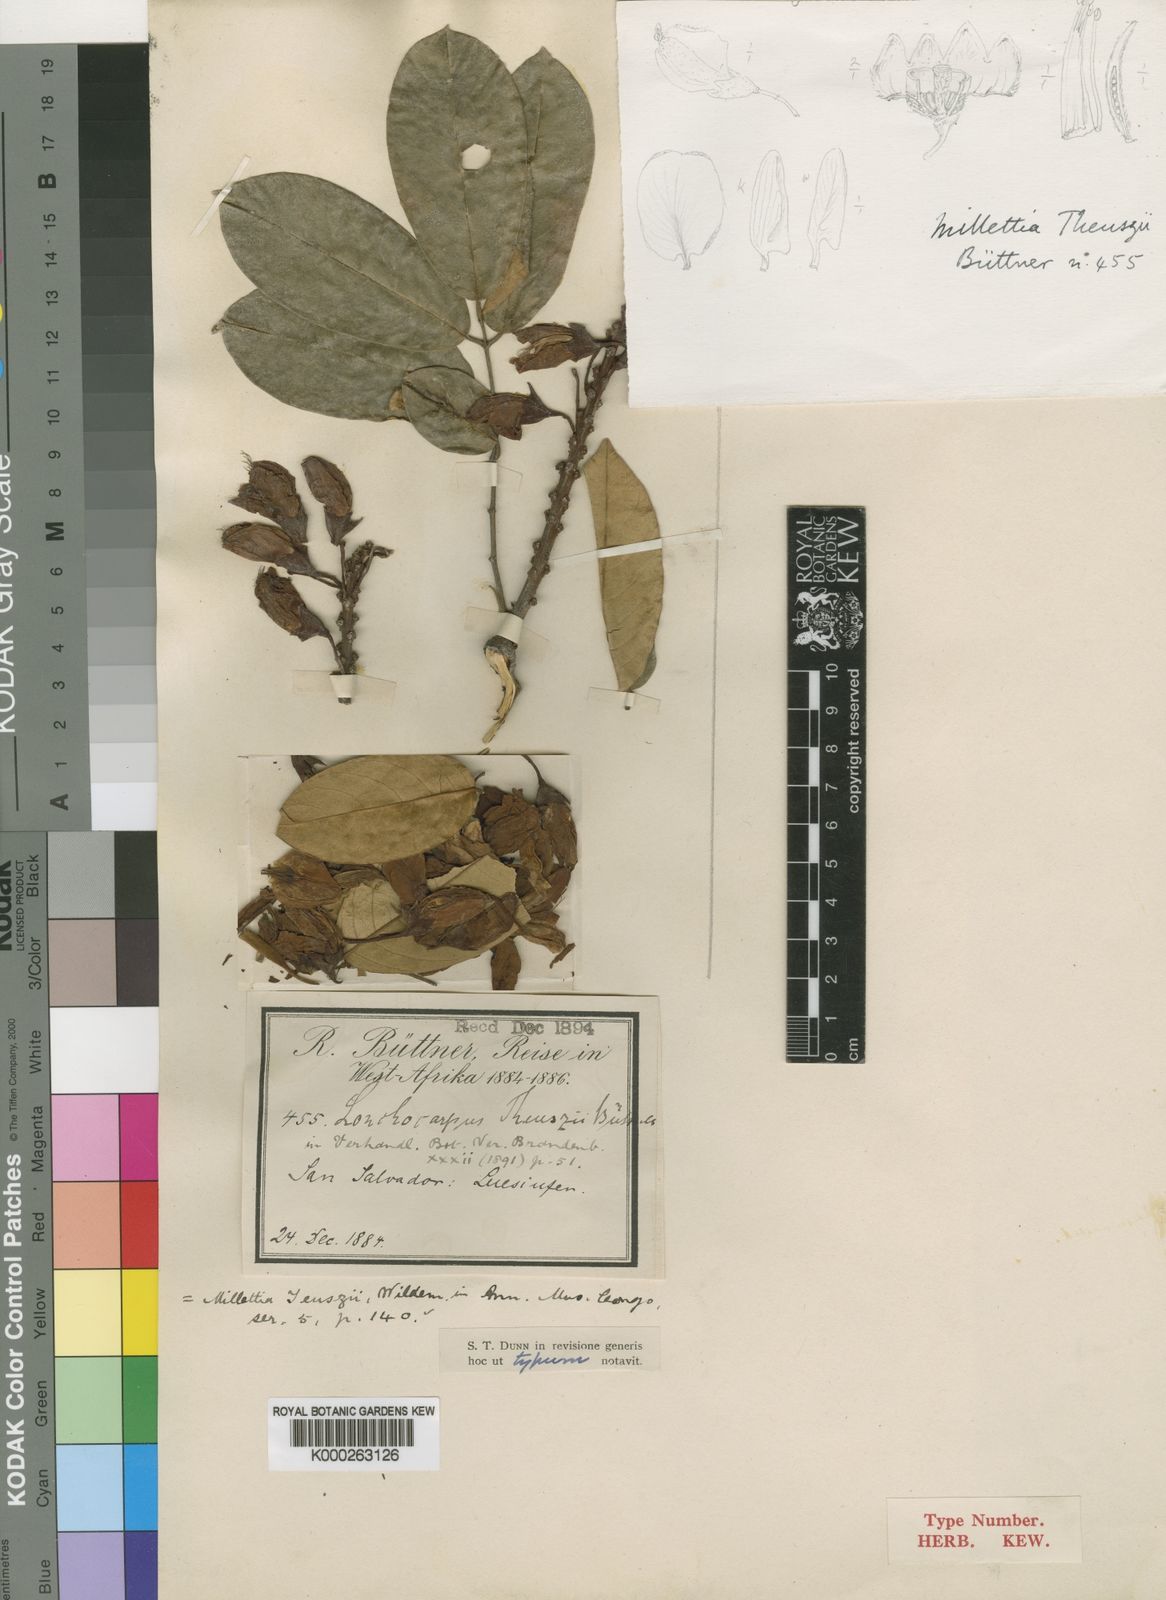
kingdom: Plantae
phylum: Tracheophyta
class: Magnoliopsida
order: Fabales
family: Fabaceae
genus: Millettia
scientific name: Millettia theuszii
